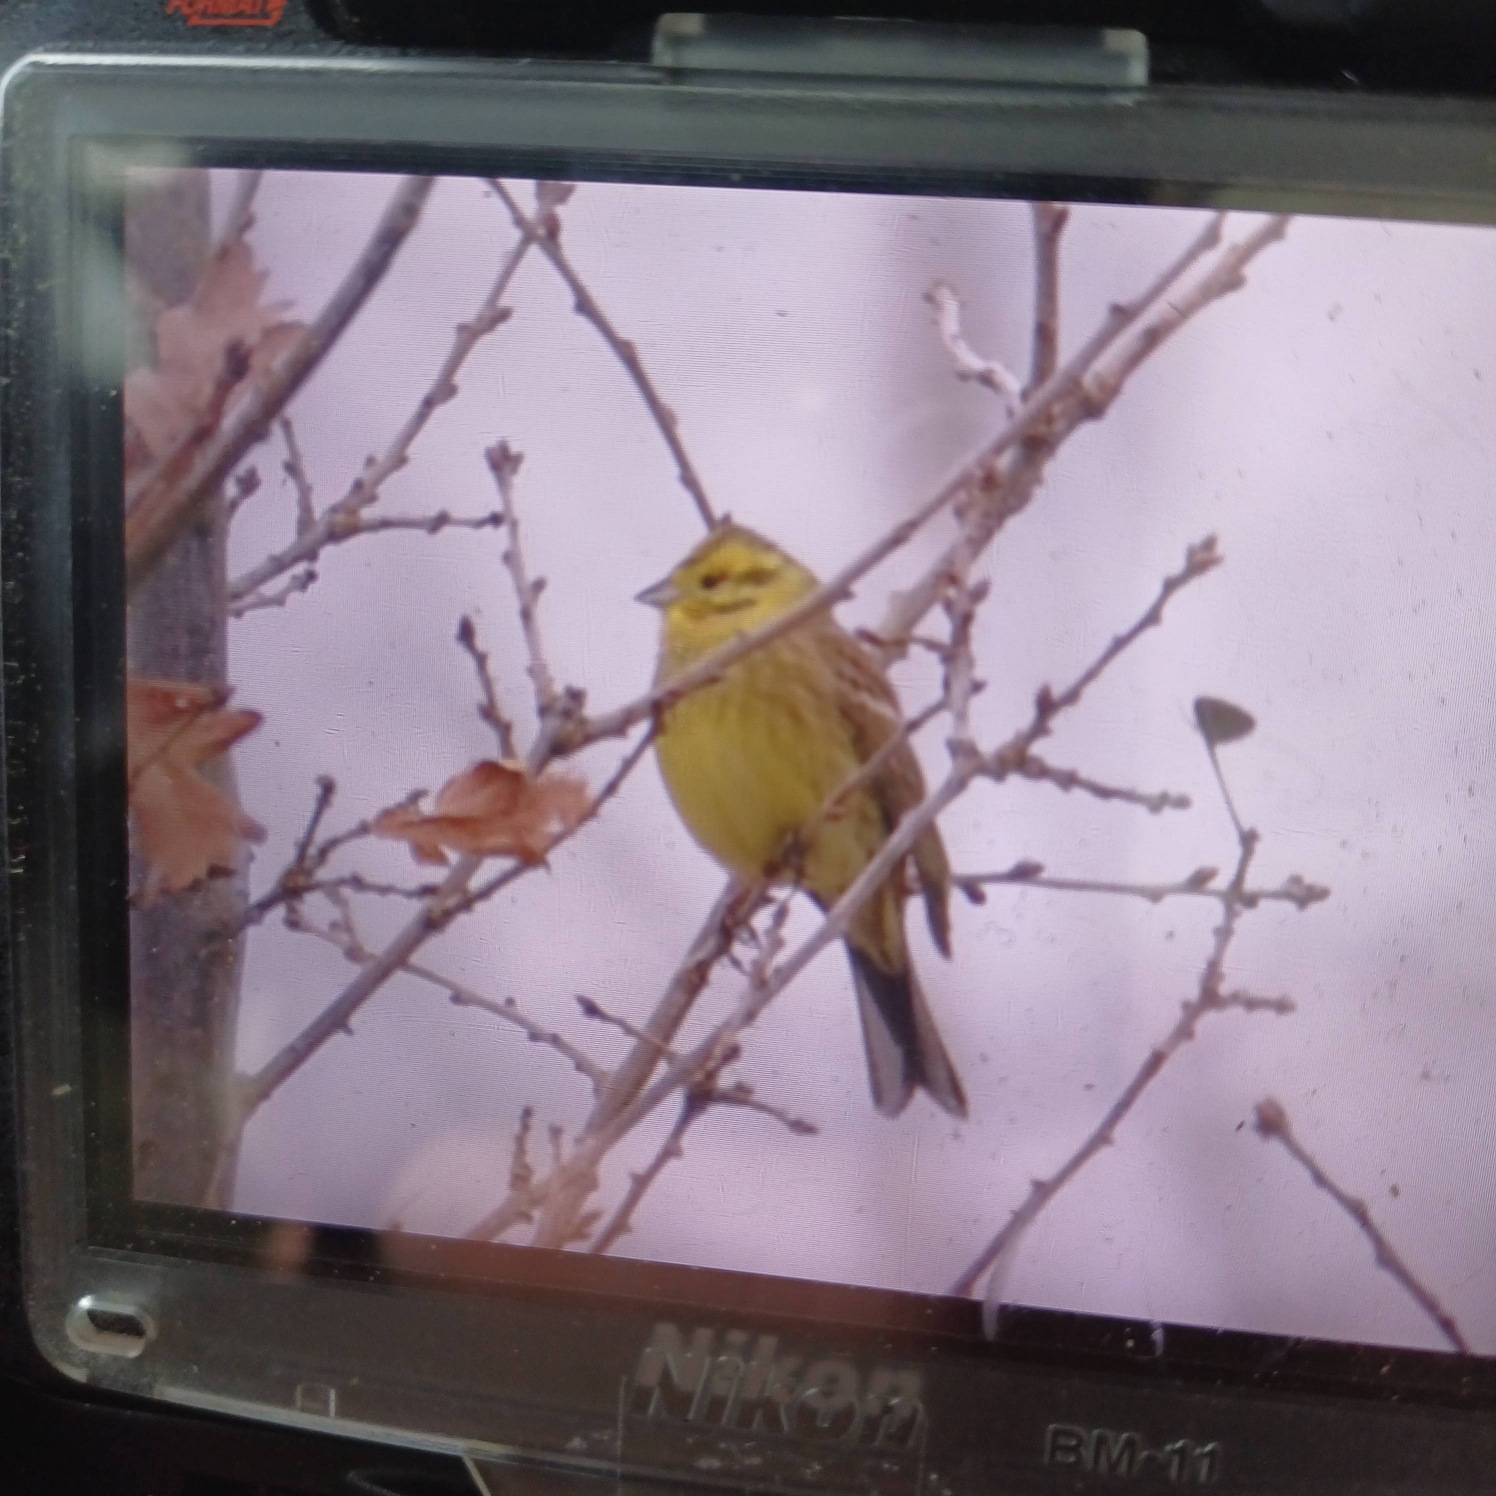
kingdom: Animalia
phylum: Chordata
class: Aves
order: Passeriformes
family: Emberizidae
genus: Emberiza
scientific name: Emberiza citrinella
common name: Gulspurv
